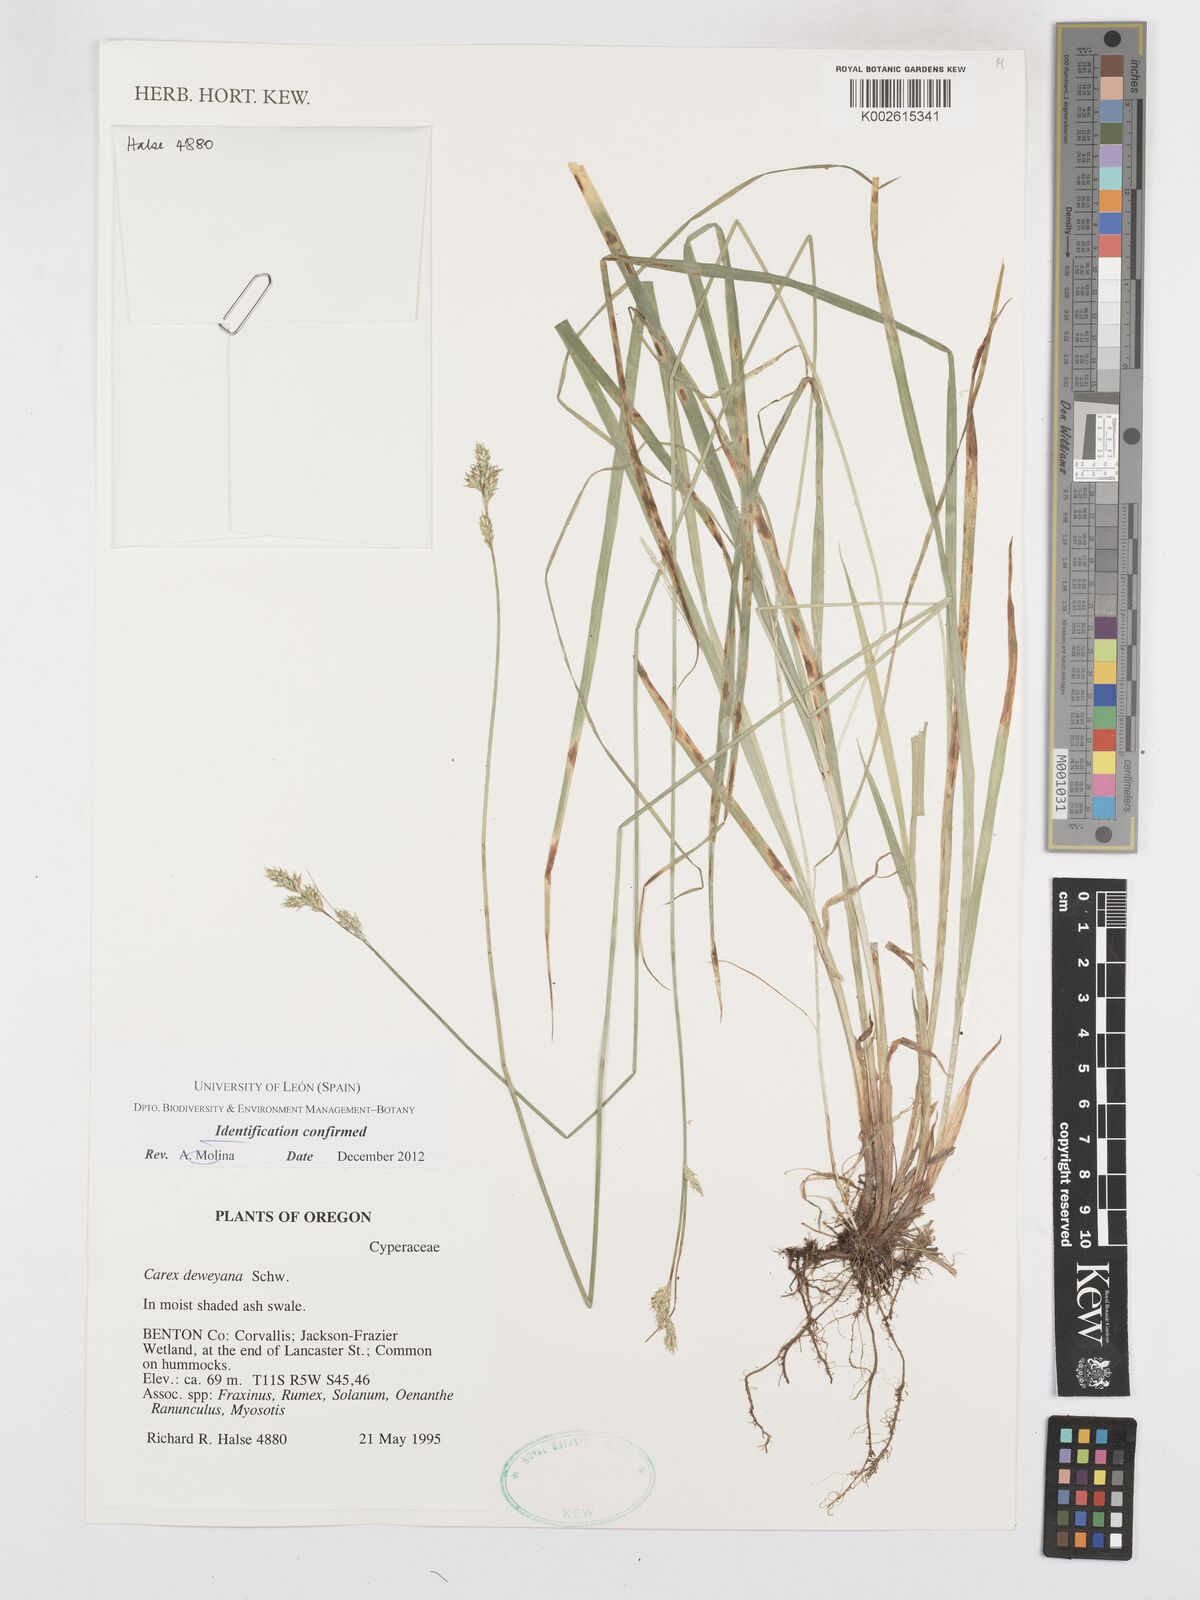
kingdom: Plantae
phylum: Tracheophyta
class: Liliopsida
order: Poales
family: Cyperaceae
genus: Carex
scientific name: Carex deweyana
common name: Dewey's sedge
